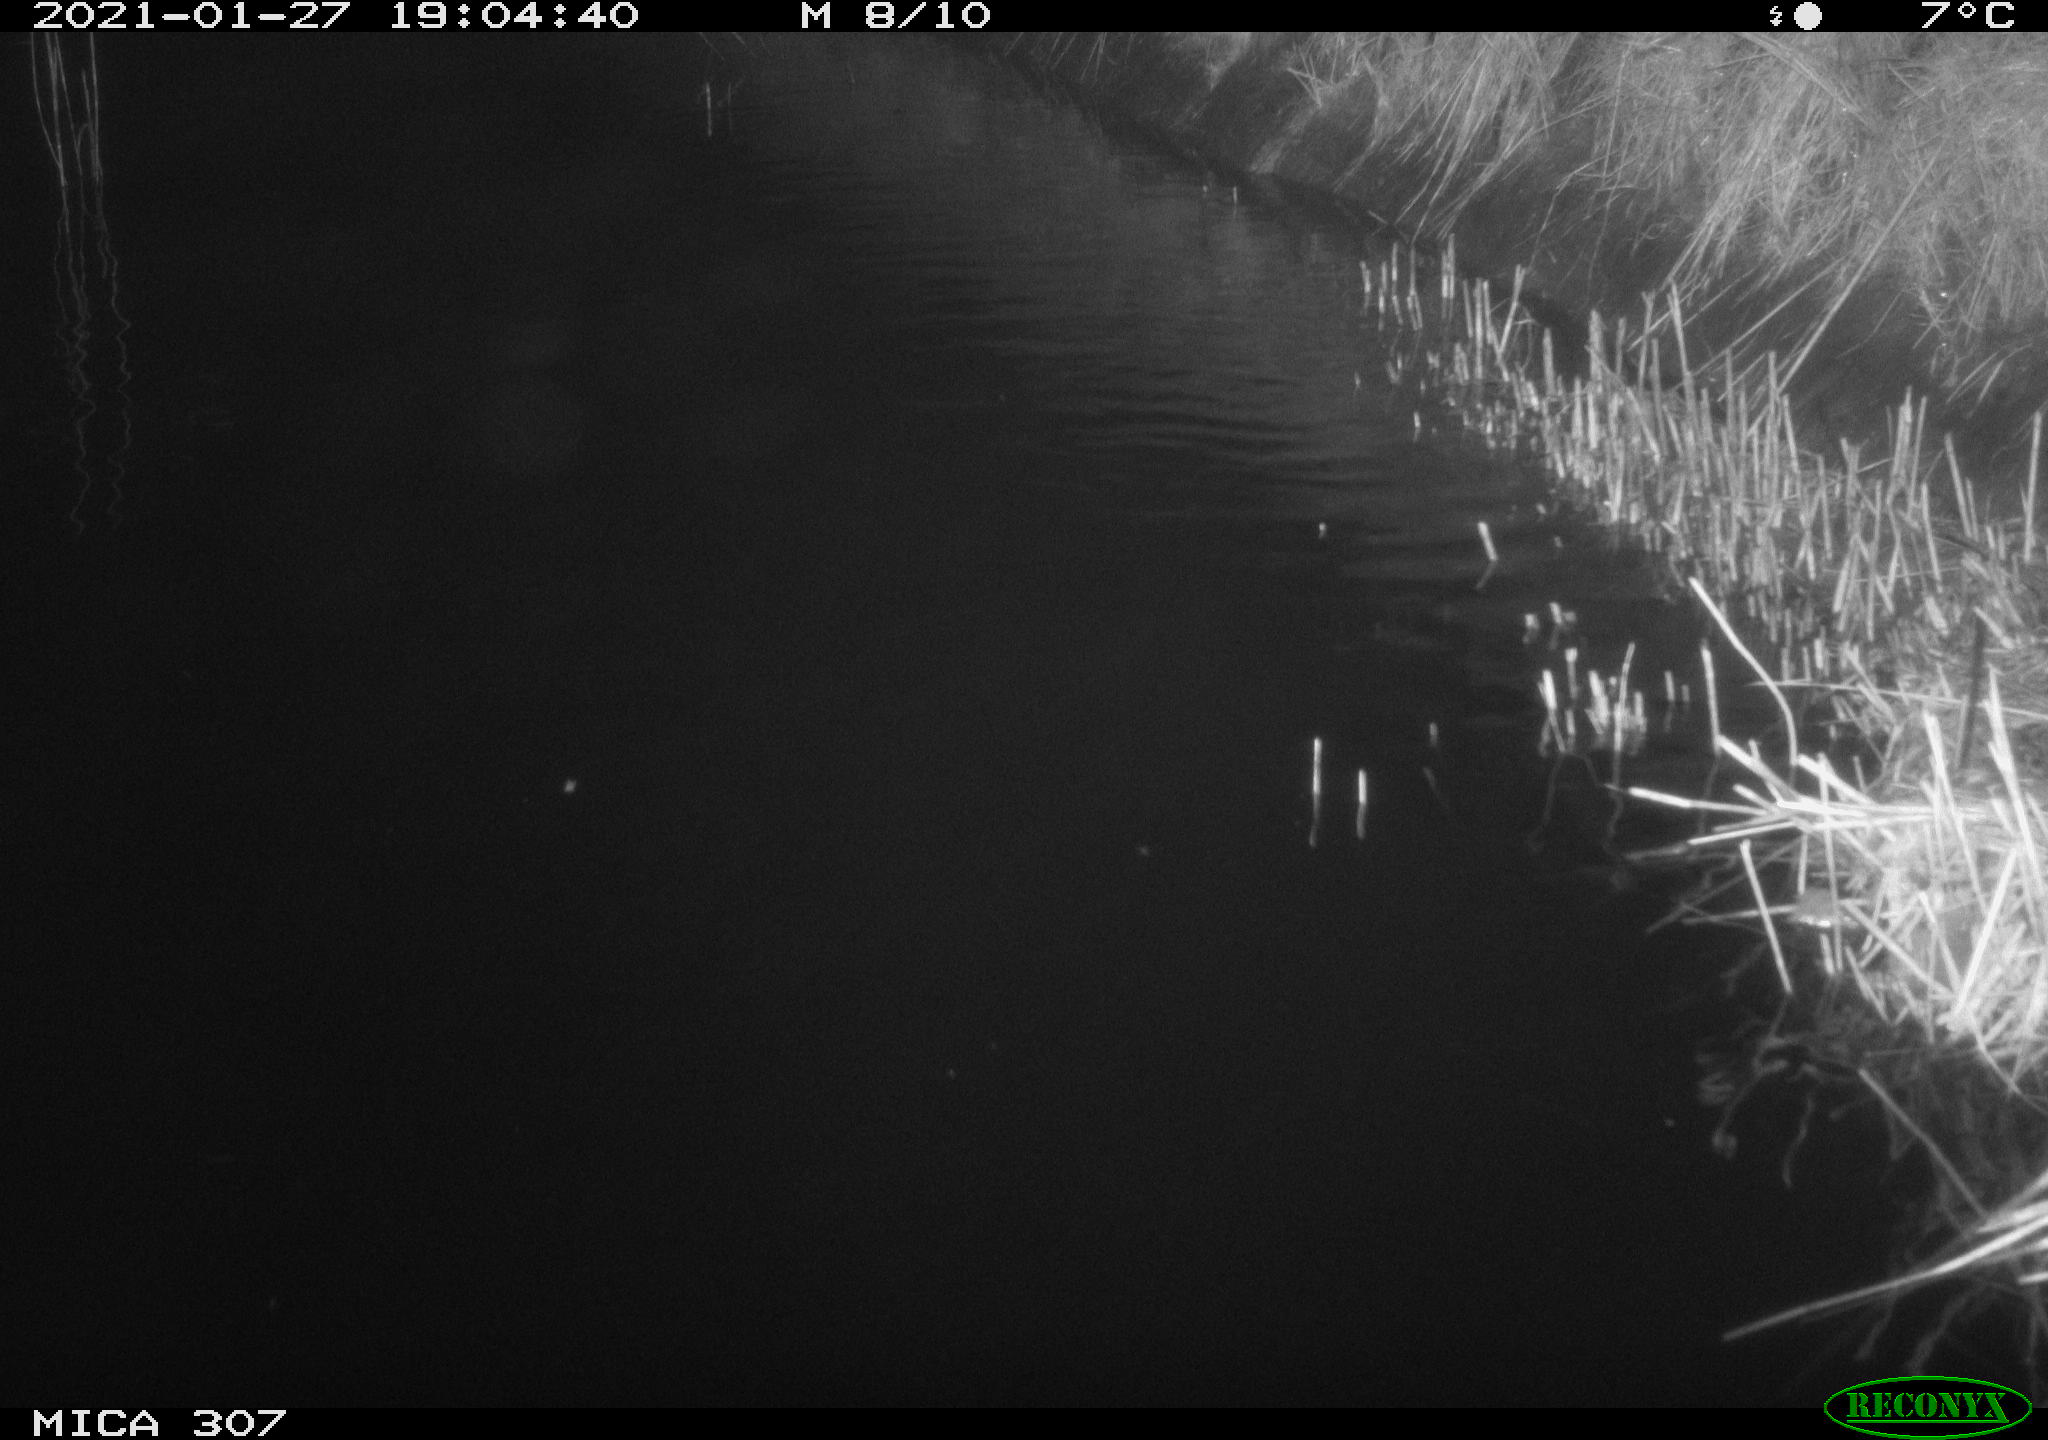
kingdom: Animalia
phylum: Chordata
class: Mammalia
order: Rodentia
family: Cricetidae
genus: Ondatra
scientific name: Ondatra zibethicus
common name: Muskrat
